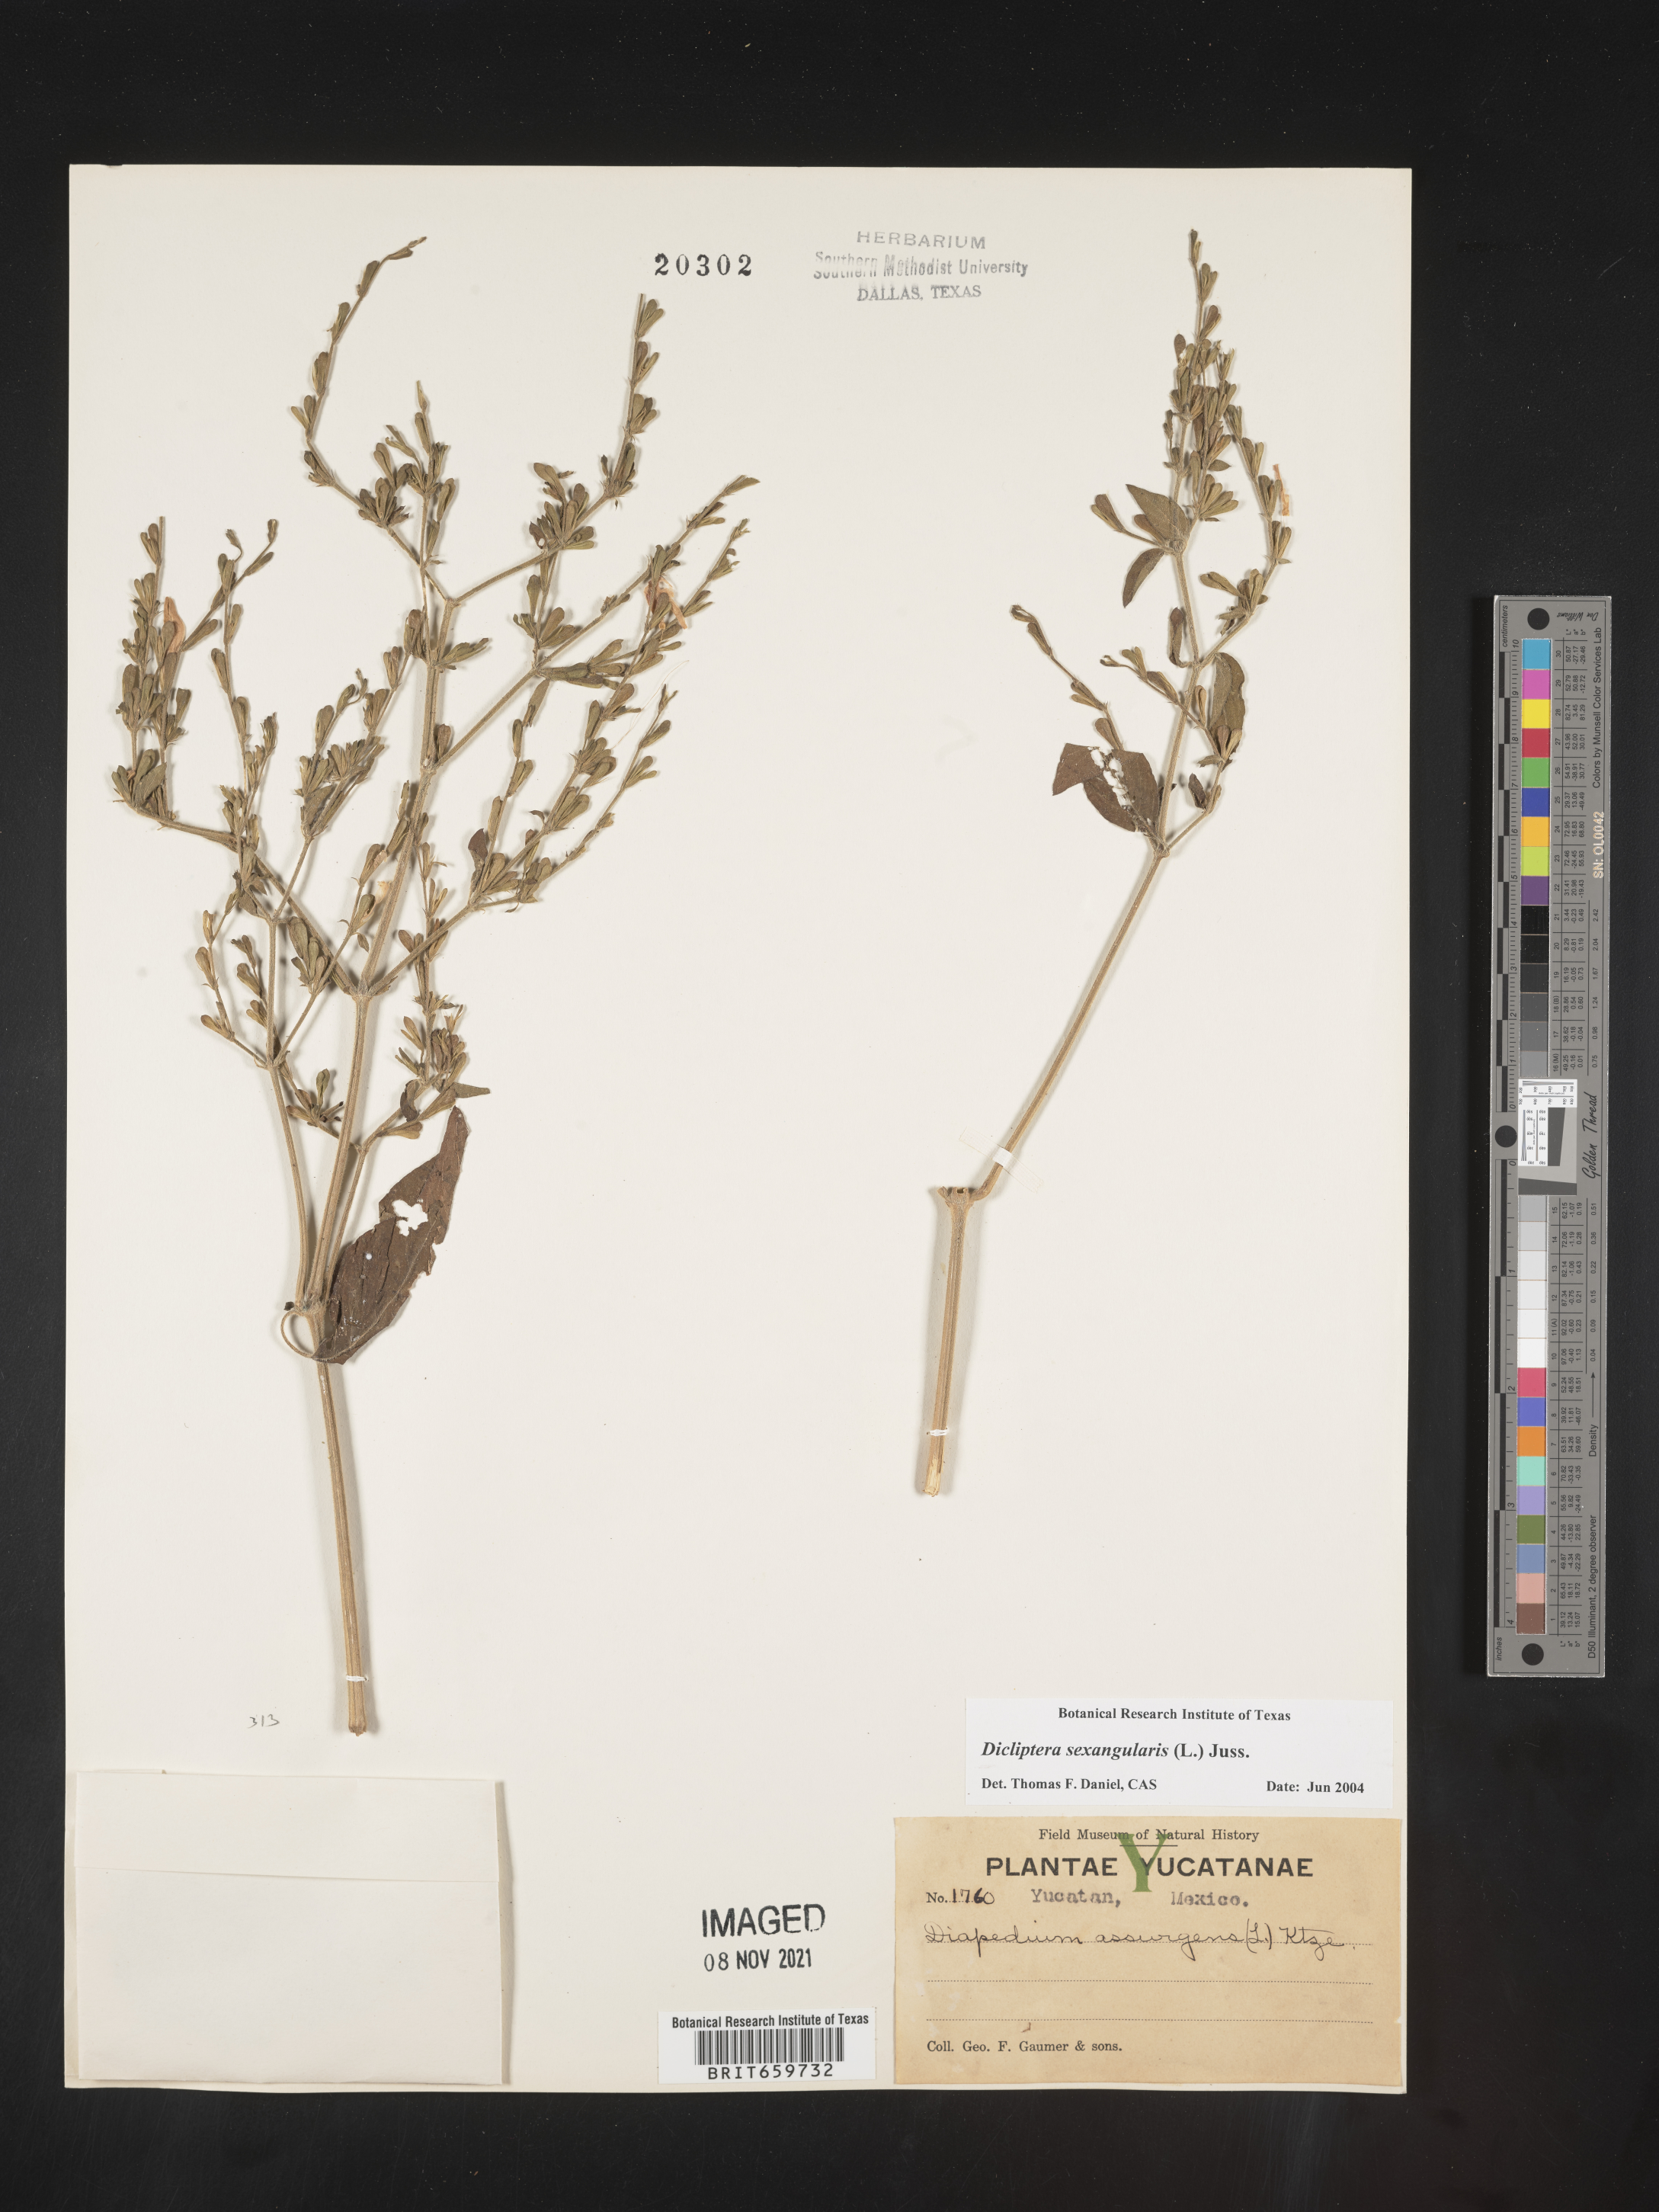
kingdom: Plantae
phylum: Tracheophyta
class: Magnoliopsida
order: Lamiales
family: Acanthaceae
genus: Dicliptera
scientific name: Dicliptera
